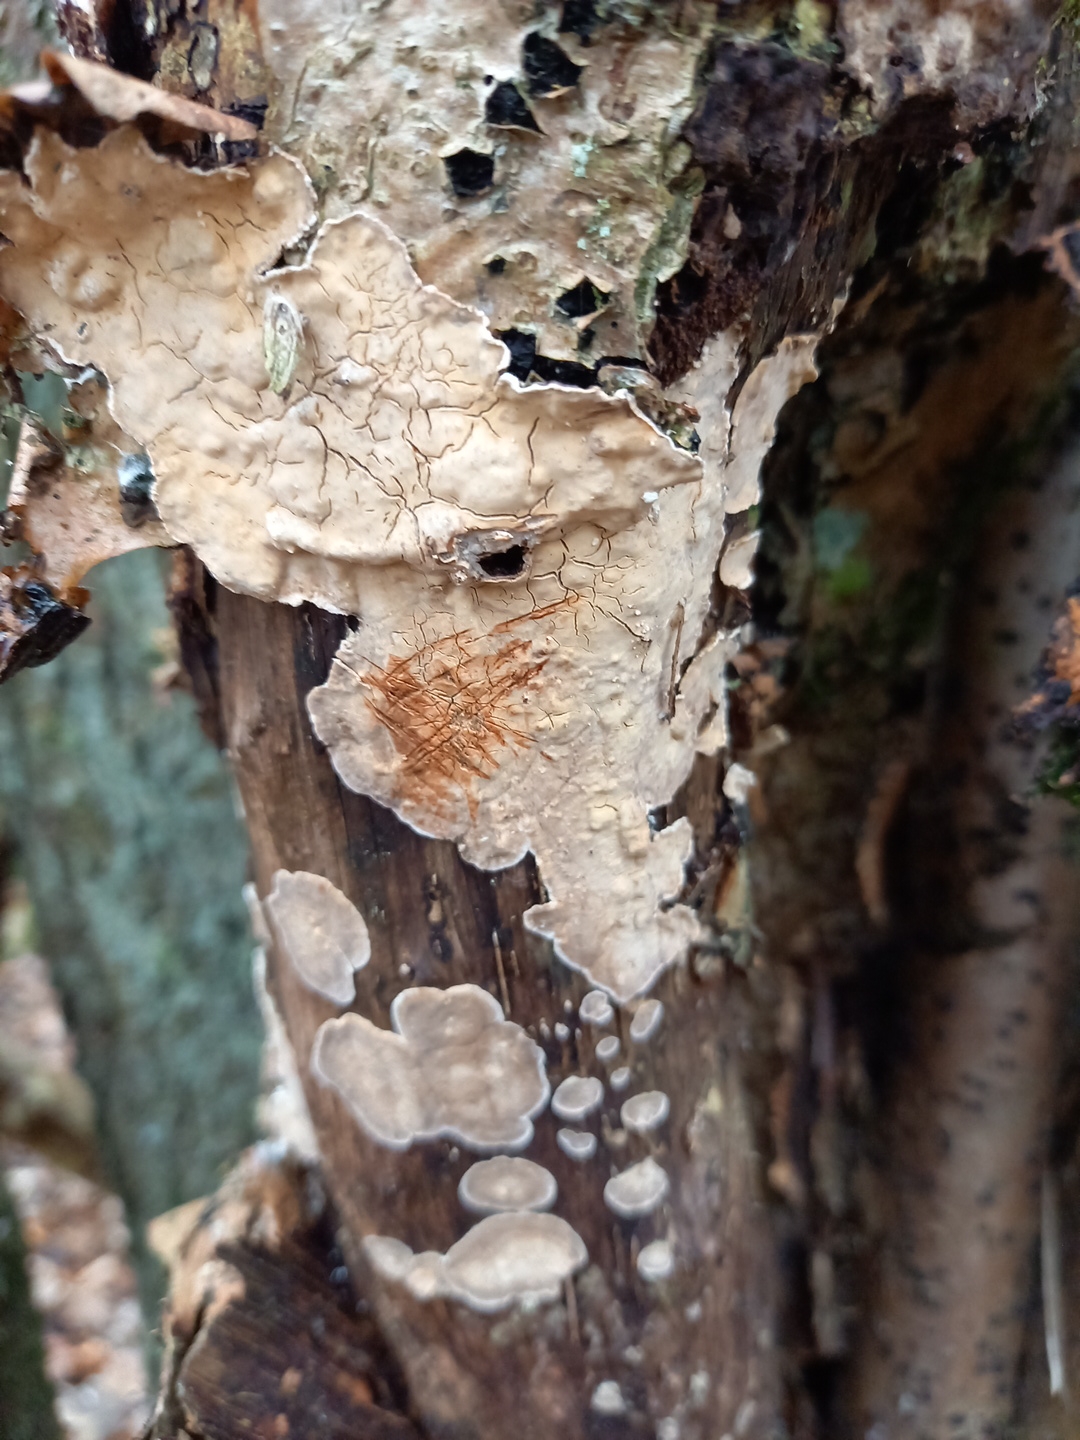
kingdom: Fungi
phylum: Basidiomycota
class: Agaricomycetes
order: Russulales
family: Stereaceae
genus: Stereum
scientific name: Stereum rugosum
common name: rynket lædersvamp
